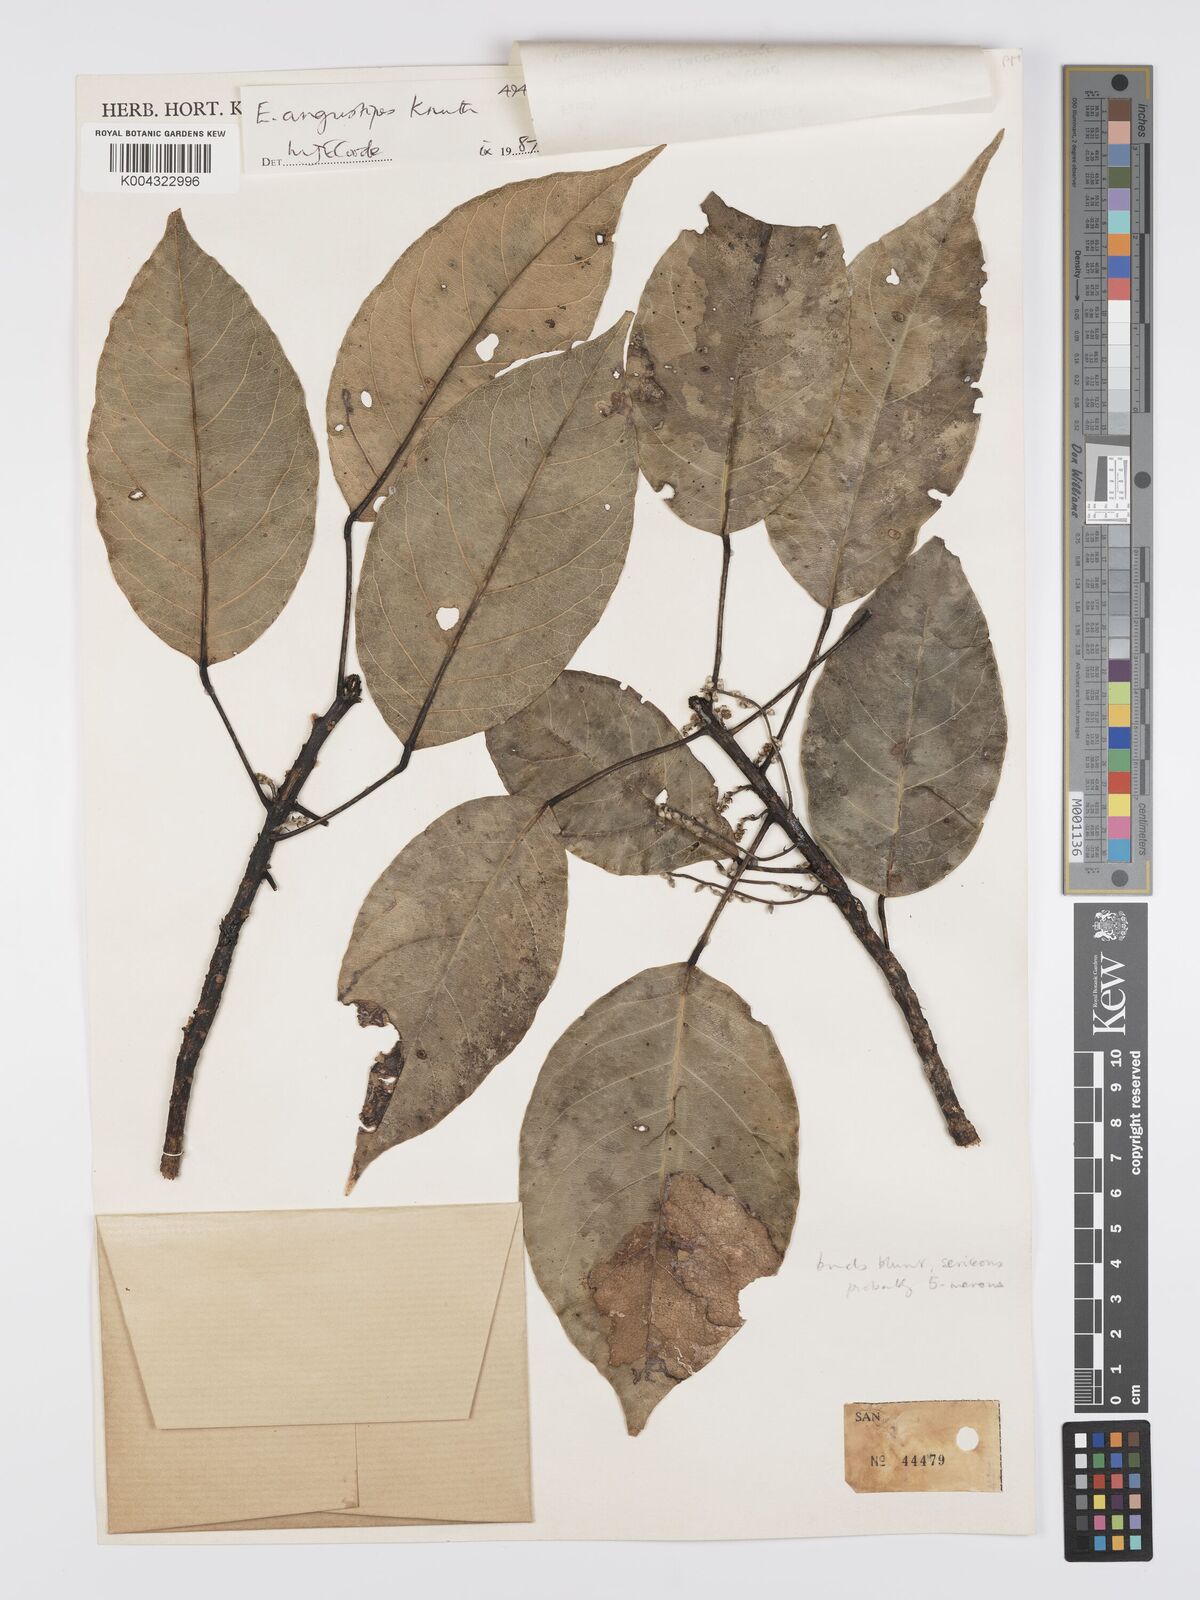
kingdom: Plantae
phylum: Tracheophyta
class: Magnoliopsida
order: Oxalidales
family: Elaeocarpaceae
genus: Elaeocarpus
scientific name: Elaeocarpus angustipes
